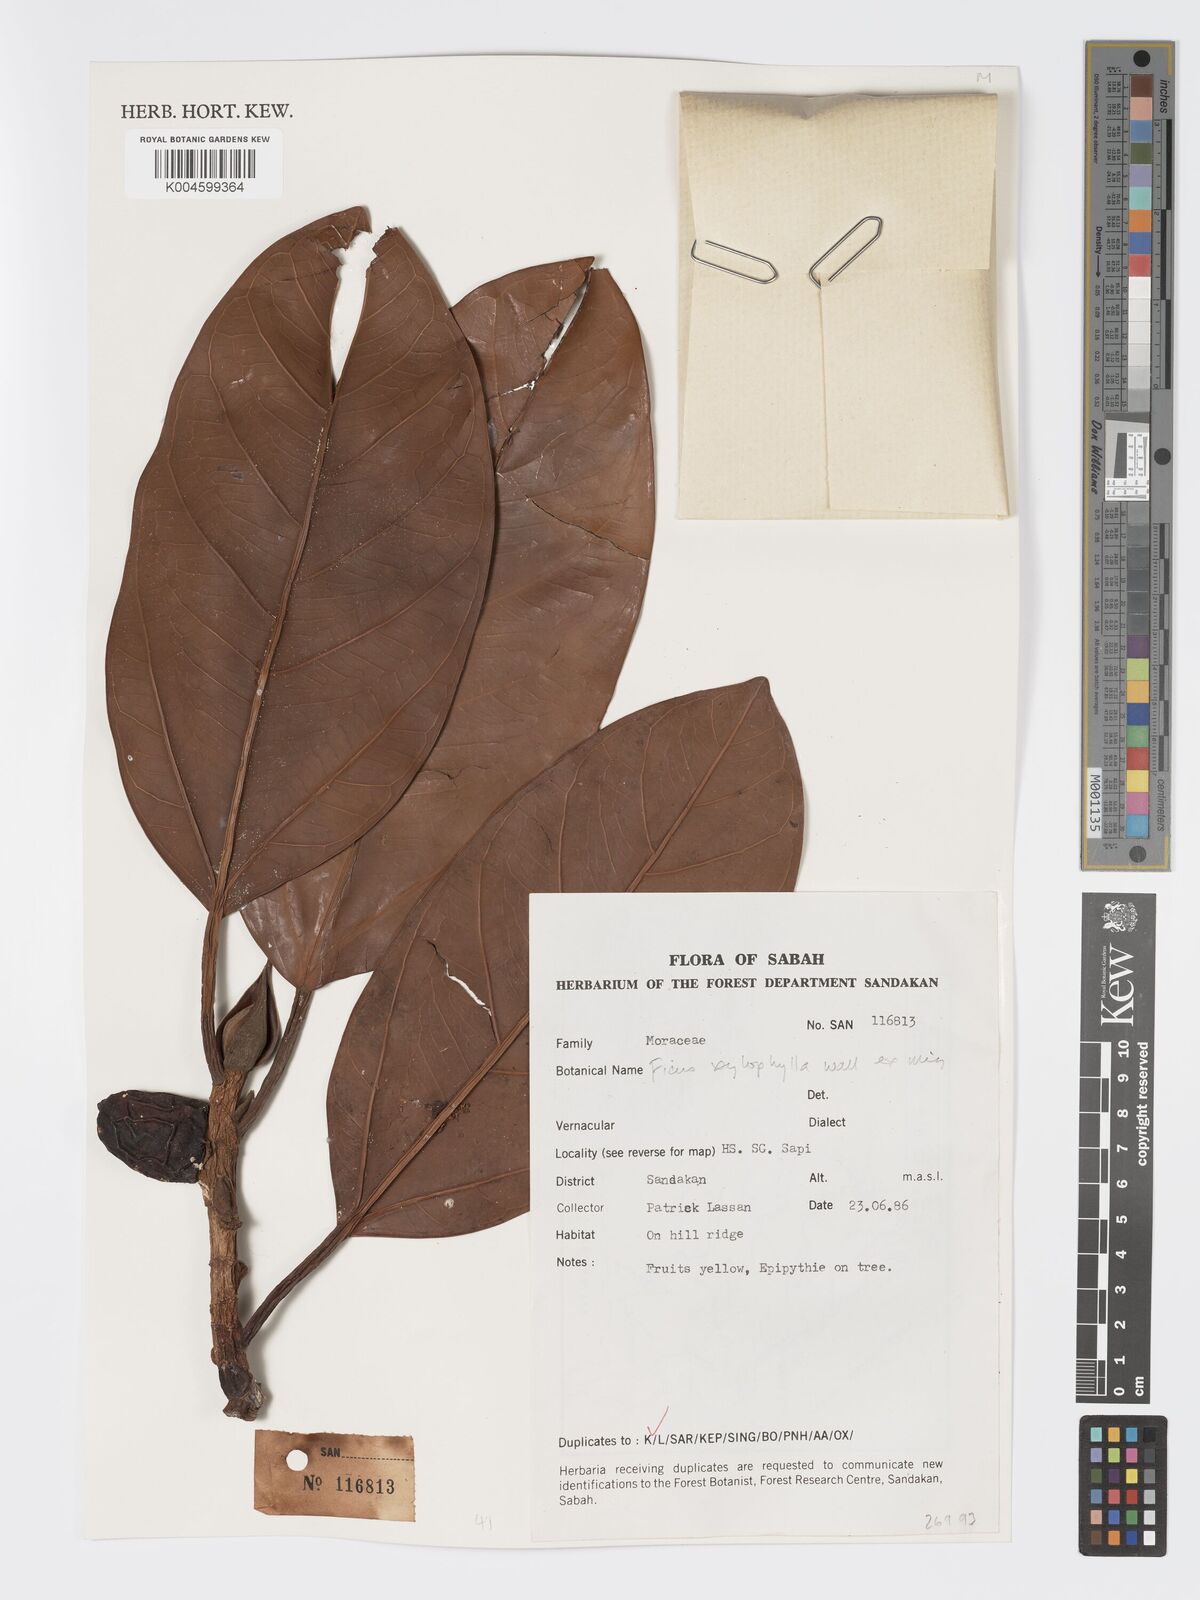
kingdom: Plantae
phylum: Tracheophyta
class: Magnoliopsida
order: Rosales
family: Moraceae
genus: Ficus
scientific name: Ficus xylophylla
